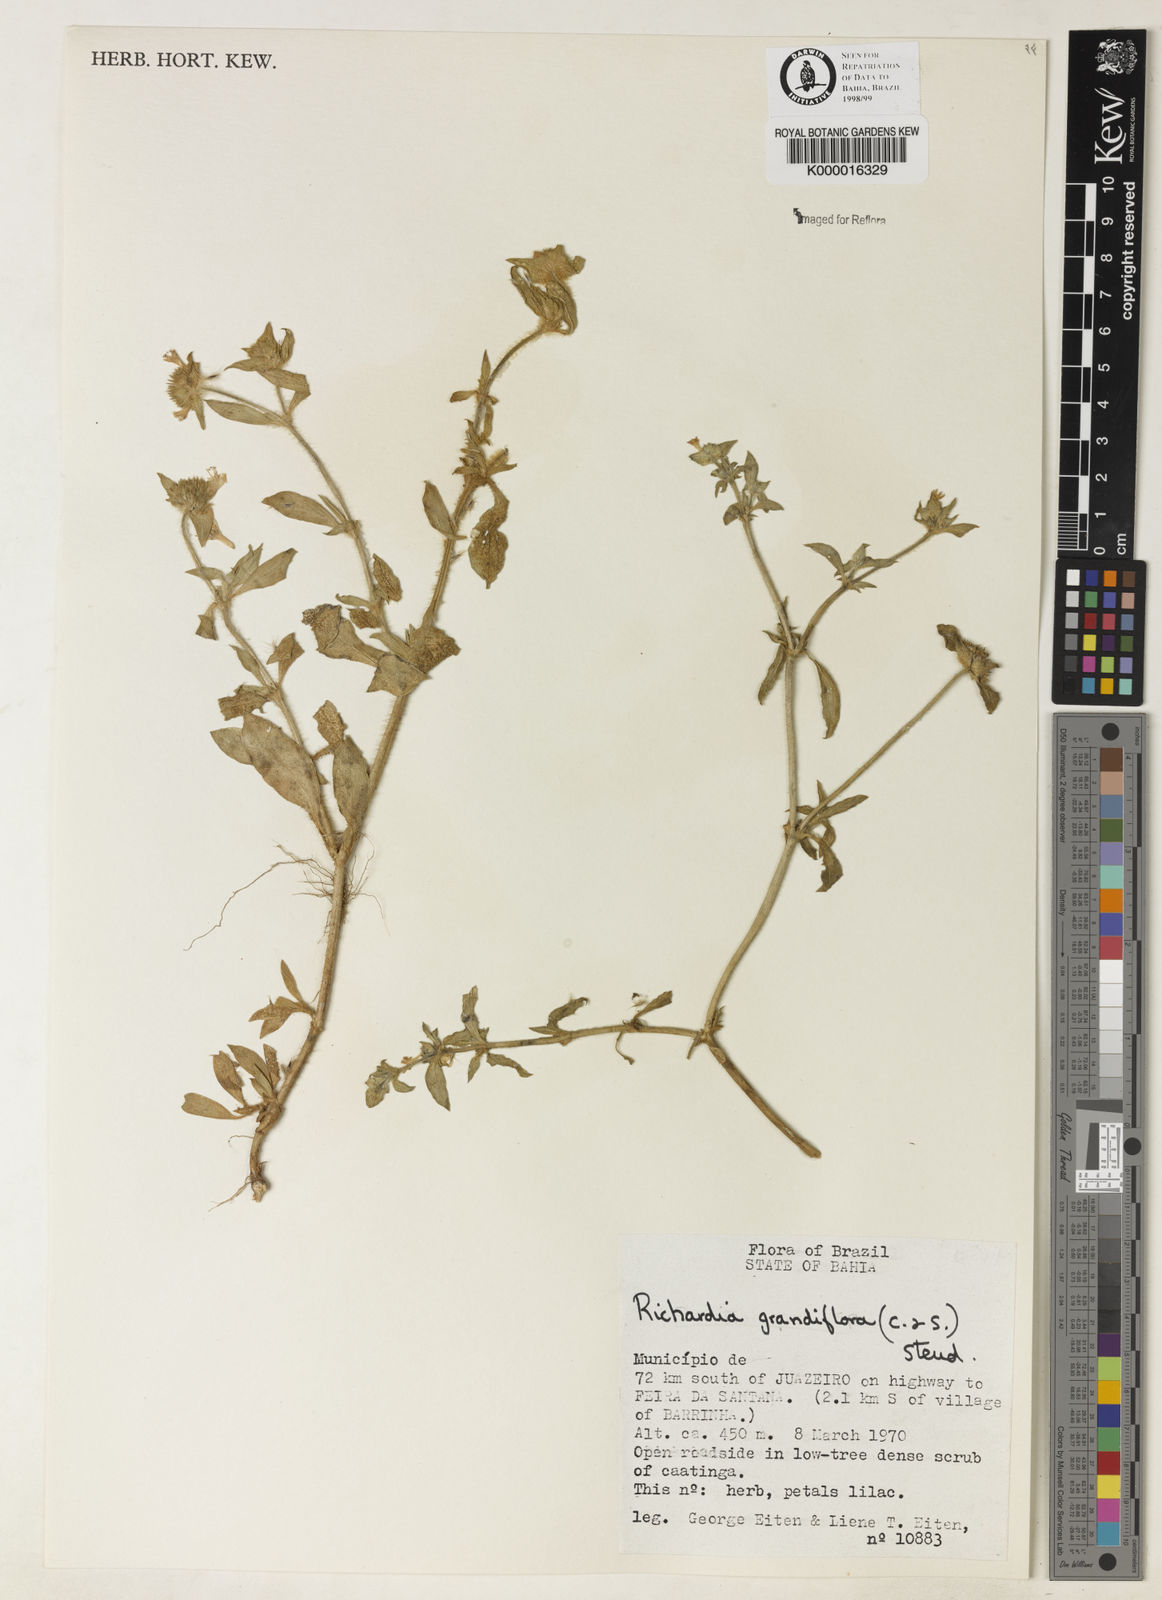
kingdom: Plantae
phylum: Tracheophyta
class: Magnoliopsida
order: Gentianales
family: Rubiaceae
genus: Richardia
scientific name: Richardia grandiflora
